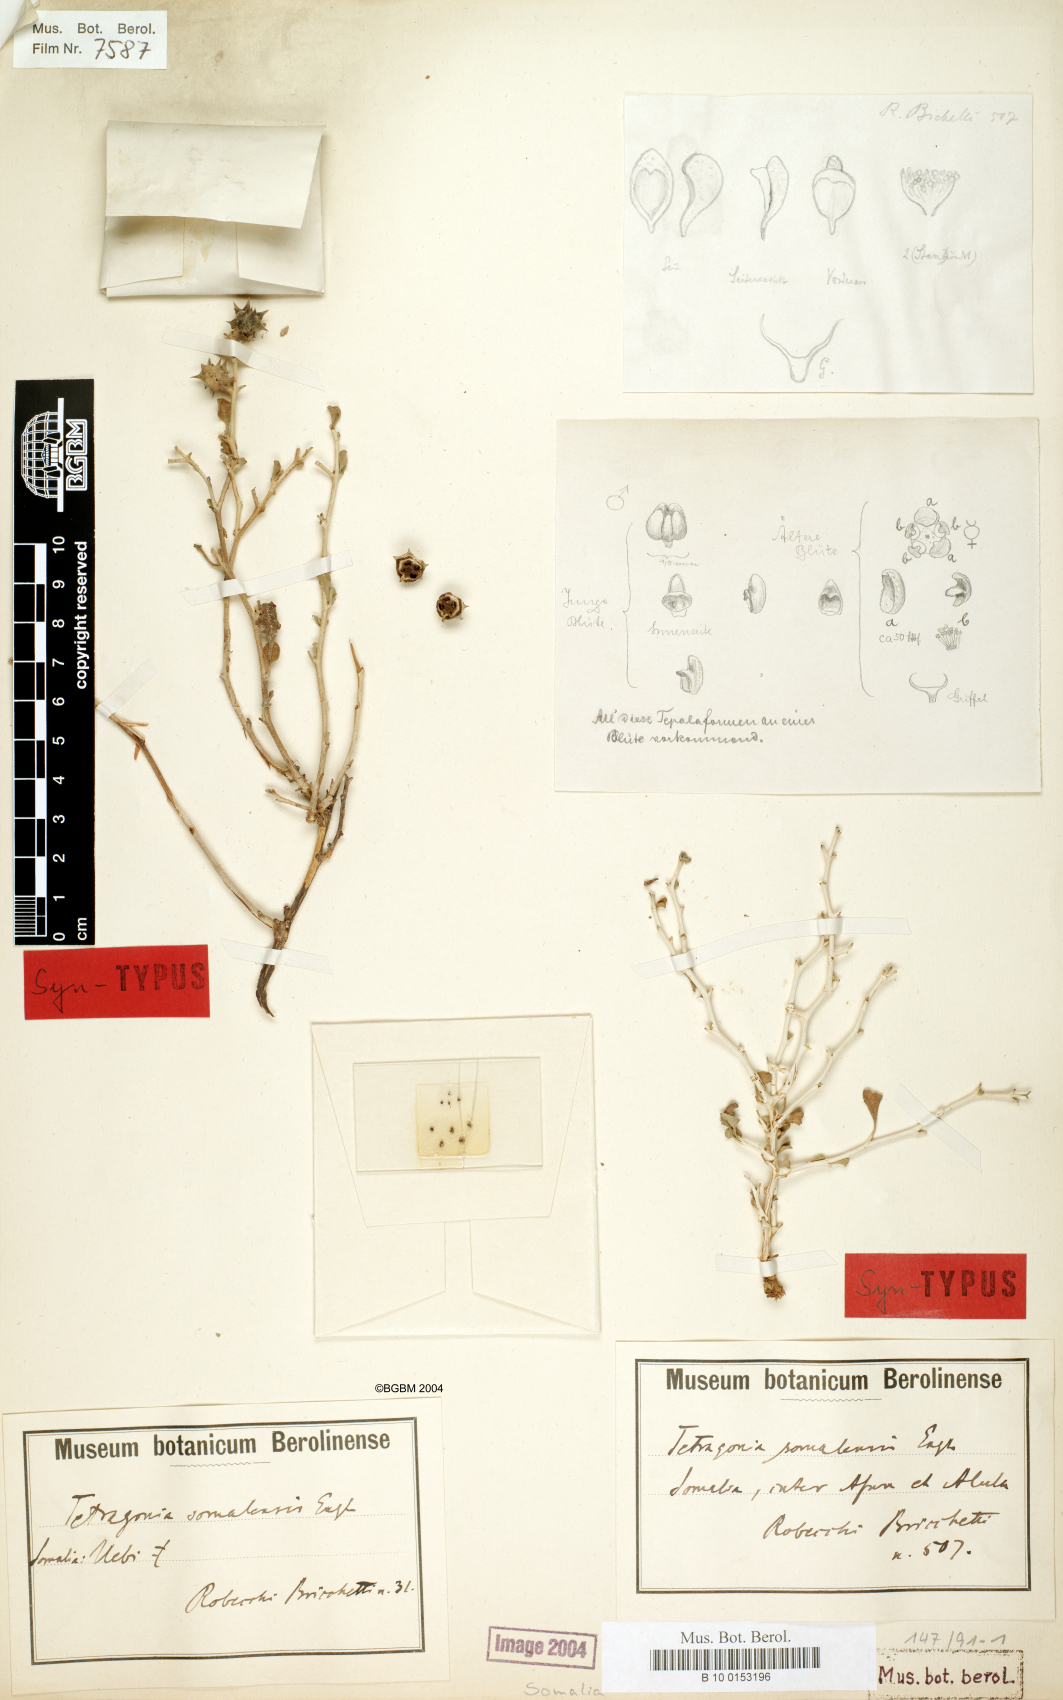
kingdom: Plantae
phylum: Tracheophyta
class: Magnoliopsida
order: Caryophyllales
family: Aizoaceae
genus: Tribulocarpus
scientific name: Tribulocarpus somalensis
